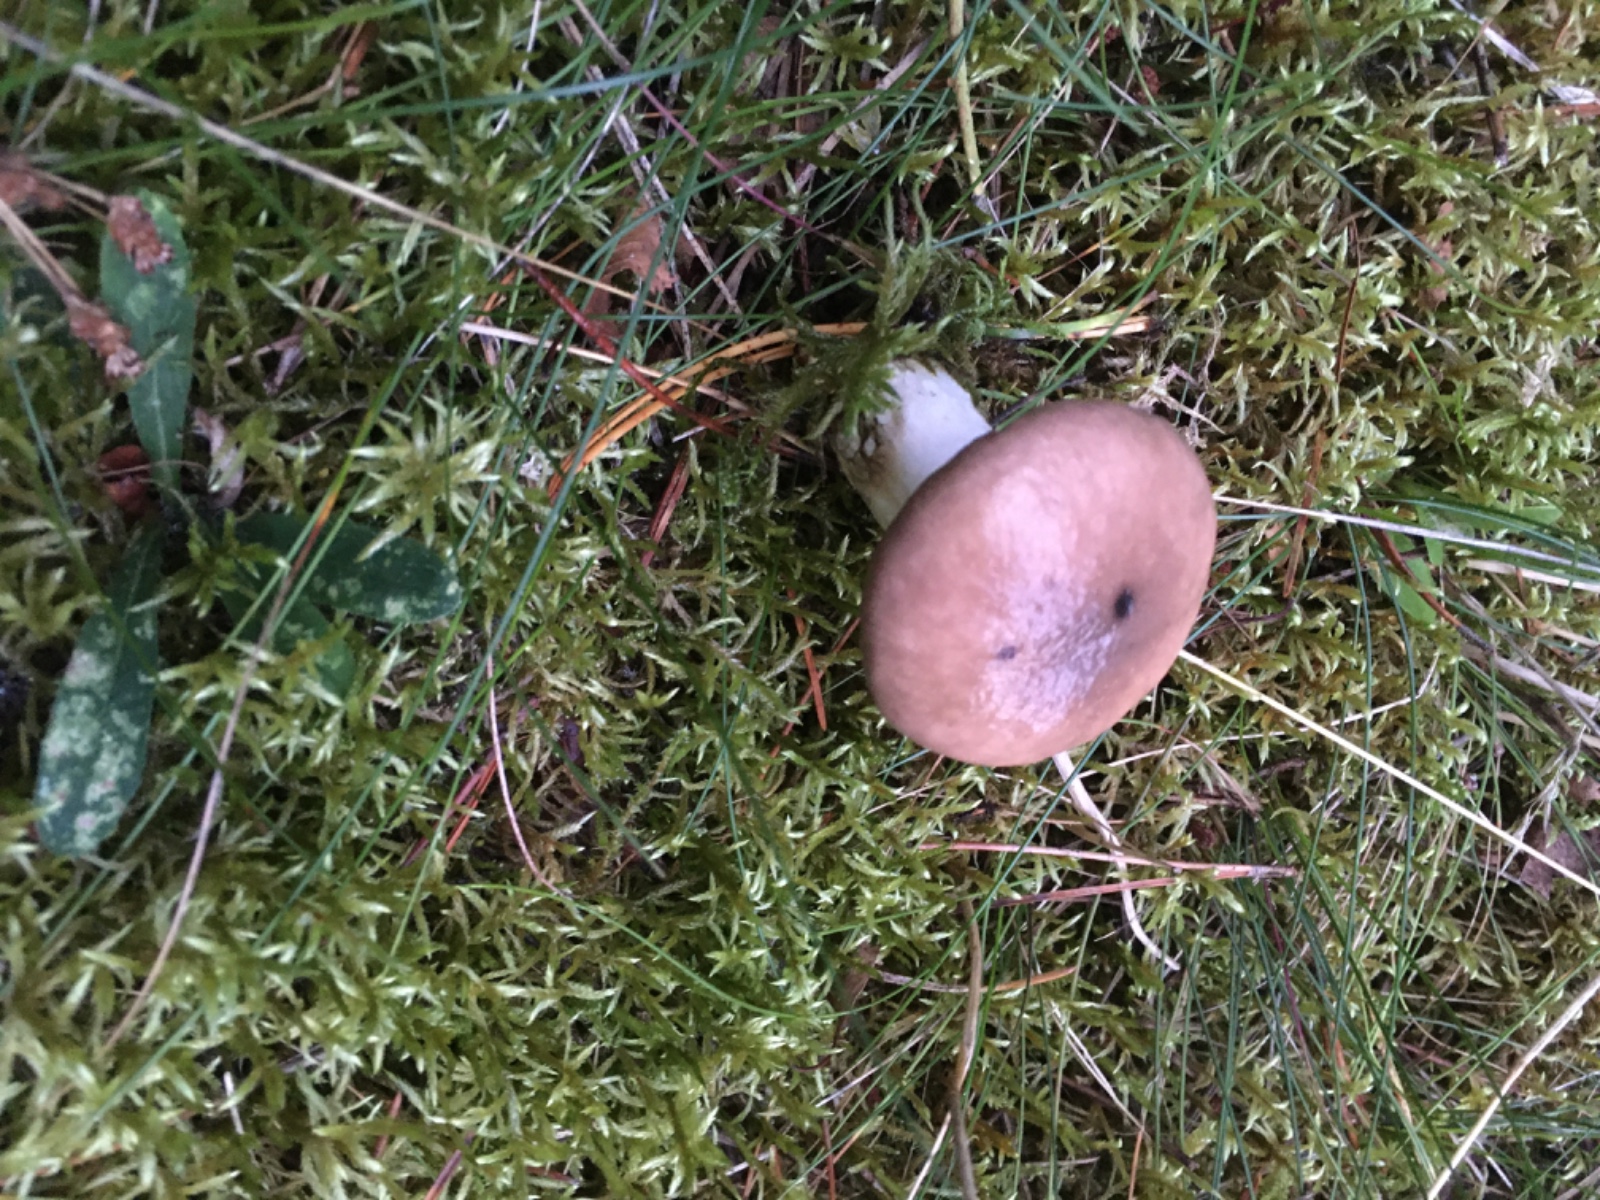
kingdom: Fungi
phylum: Basidiomycota
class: Agaricomycetes
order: Boletales
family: Gomphidiaceae
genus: Gomphidius
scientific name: Gomphidius glutinosus
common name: grå slimslør
